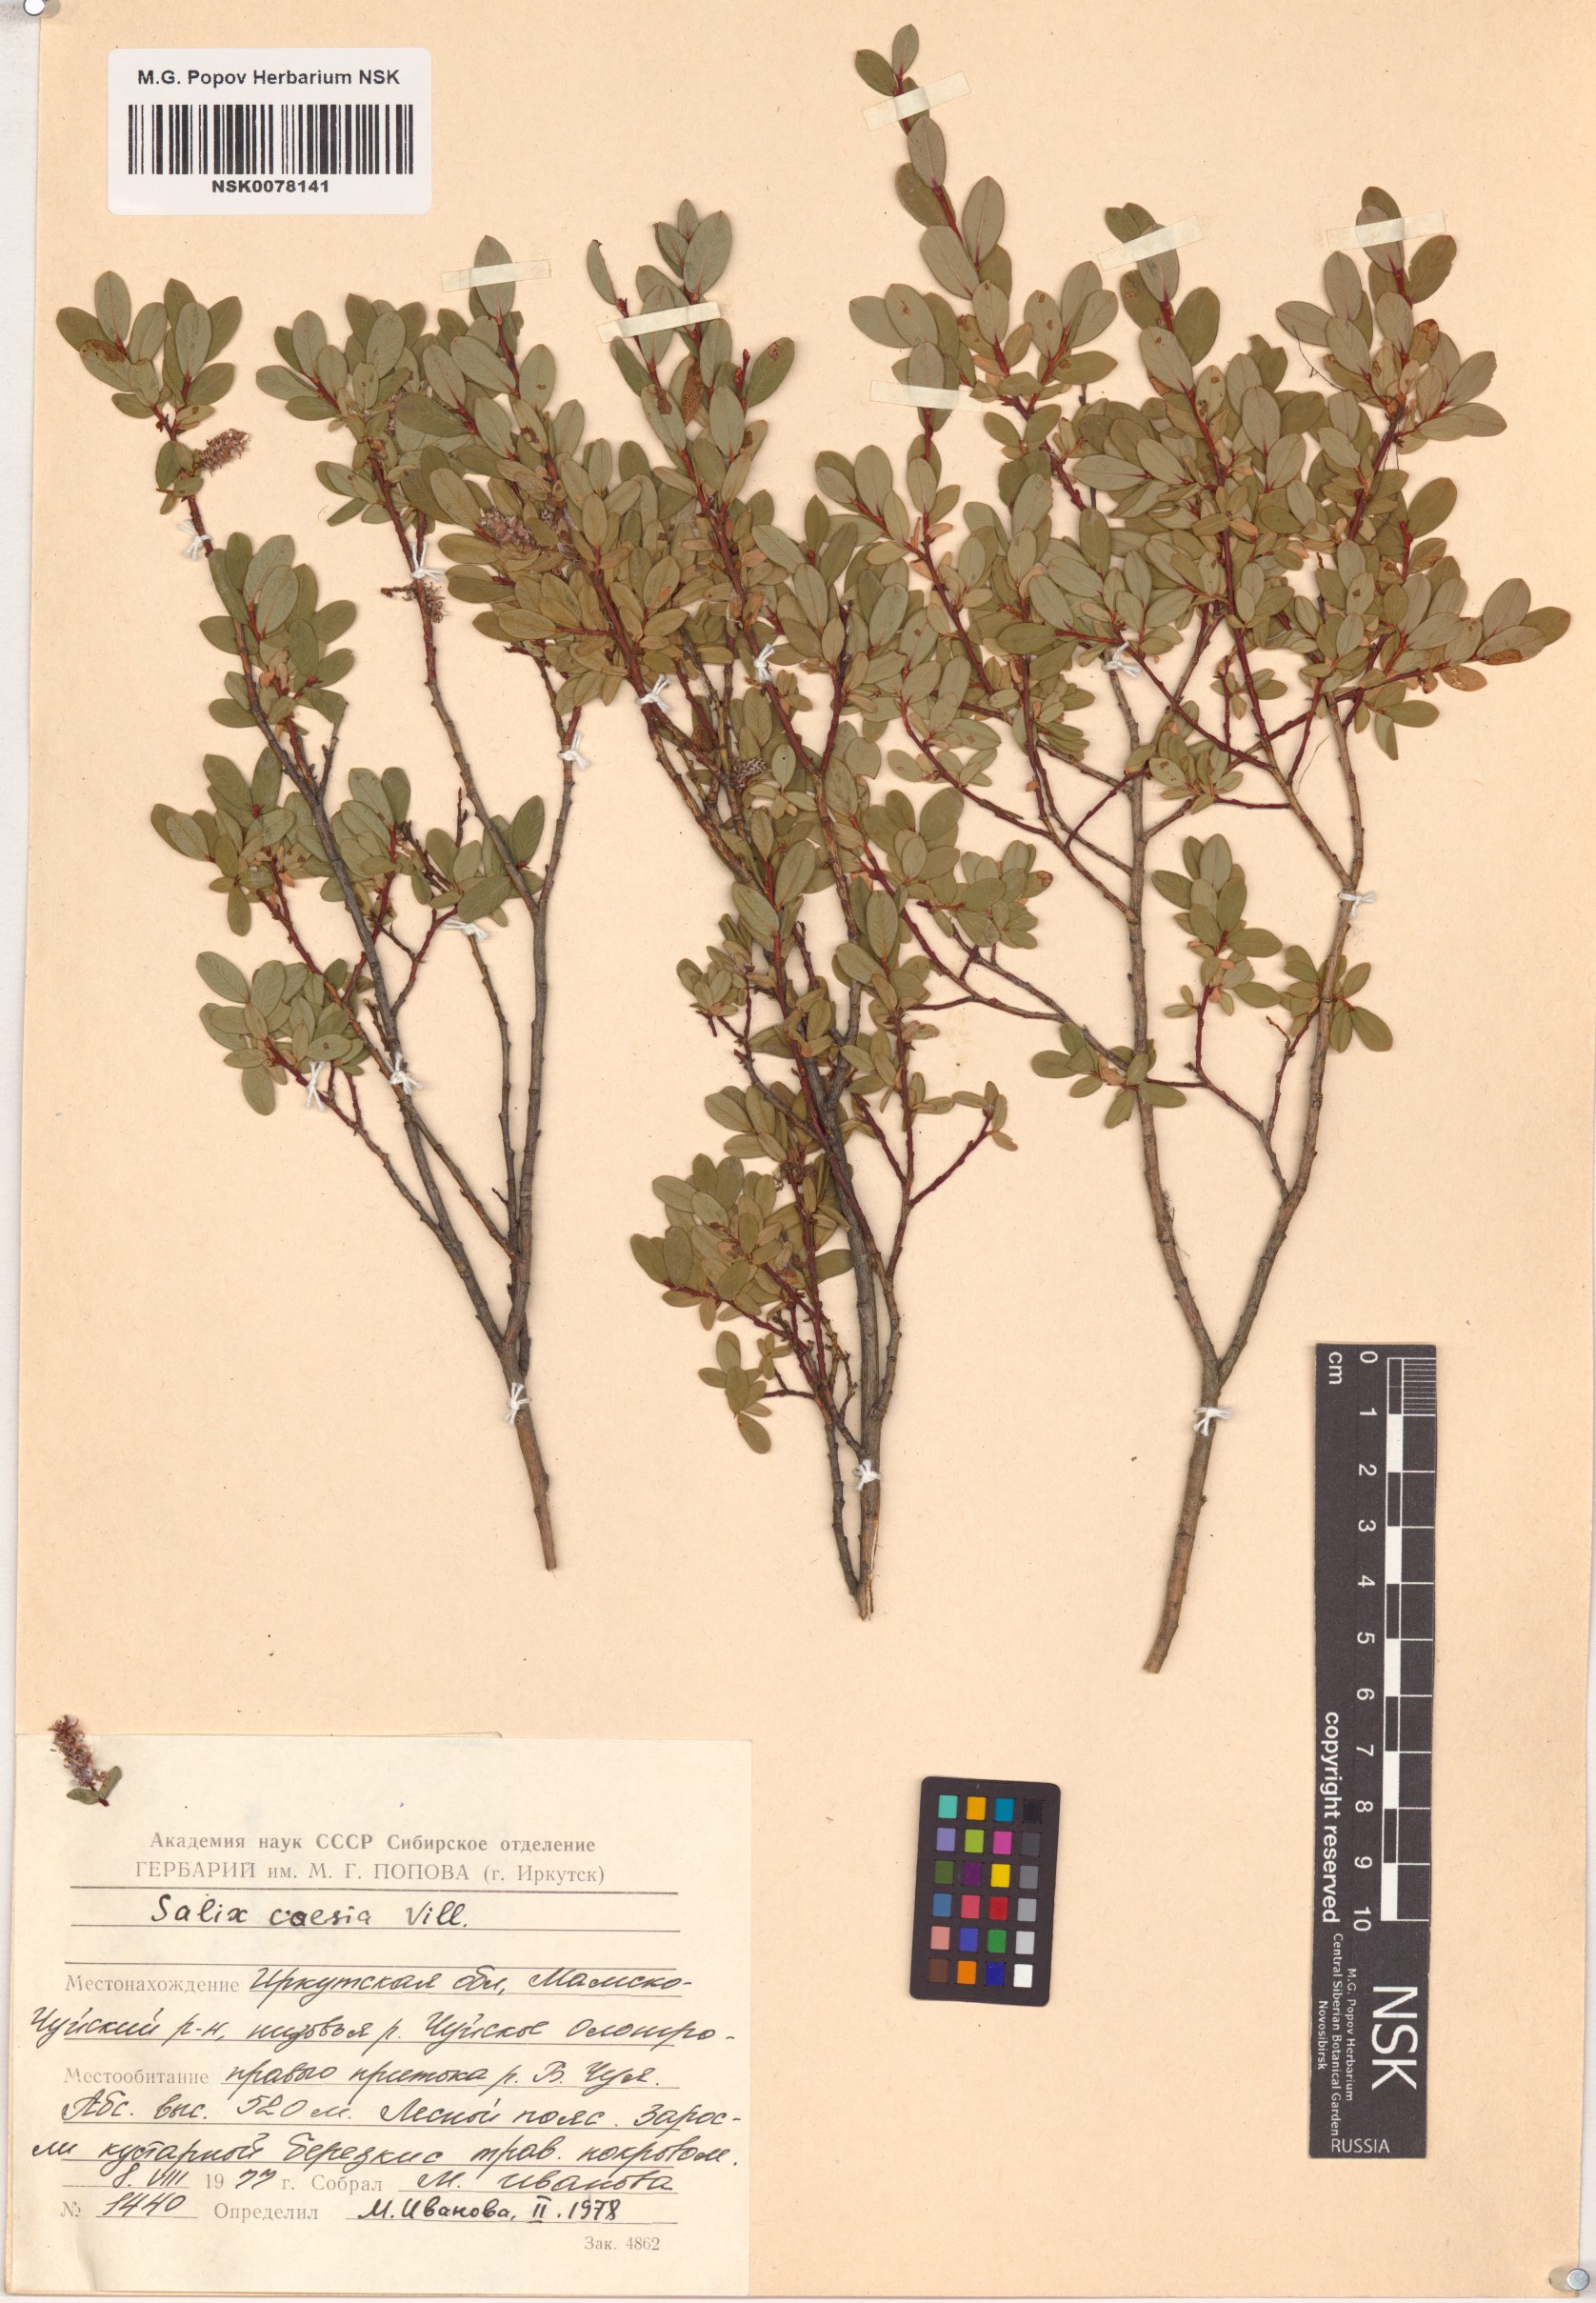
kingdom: Plantae
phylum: Tracheophyta
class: Magnoliopsida
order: Malpighiales
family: Salicaceae
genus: Salix
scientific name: Salix caesia
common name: Blue willow
